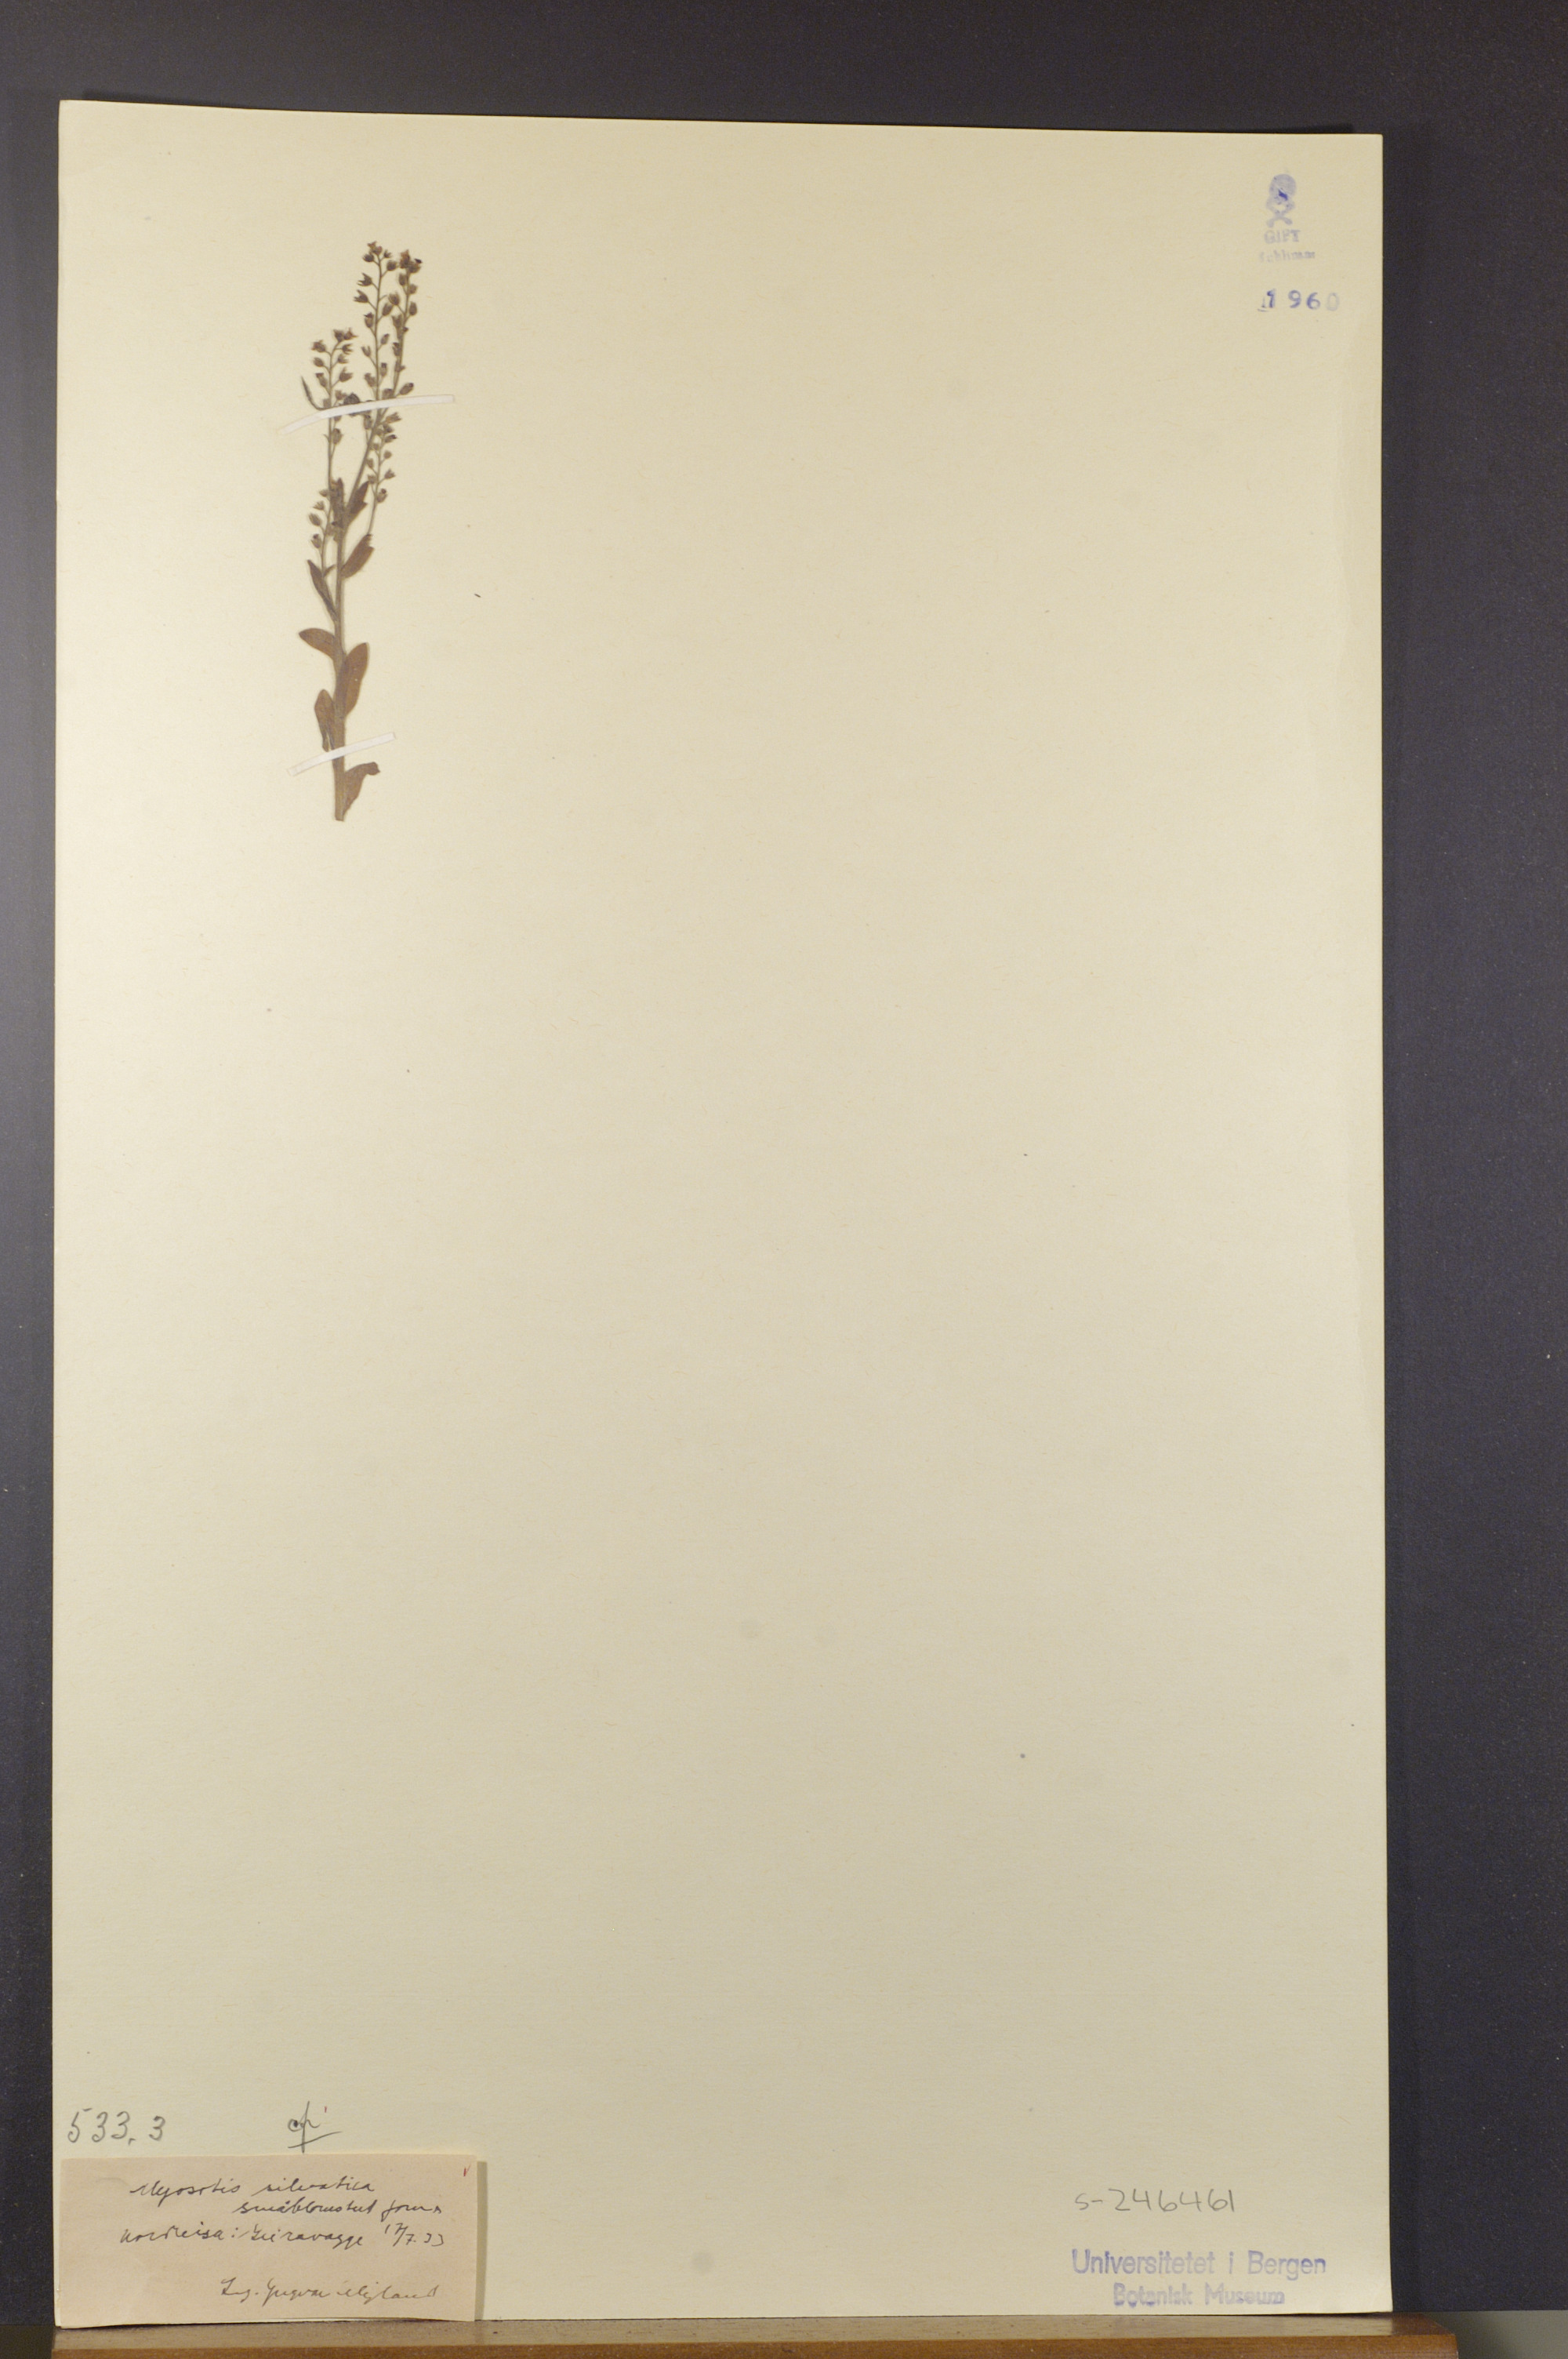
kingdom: Plantae
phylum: Tracheophyta
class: Magnoliopsida
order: Boraginales
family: Boraginaceae
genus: Myosotis
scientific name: Myosotis decumbens
